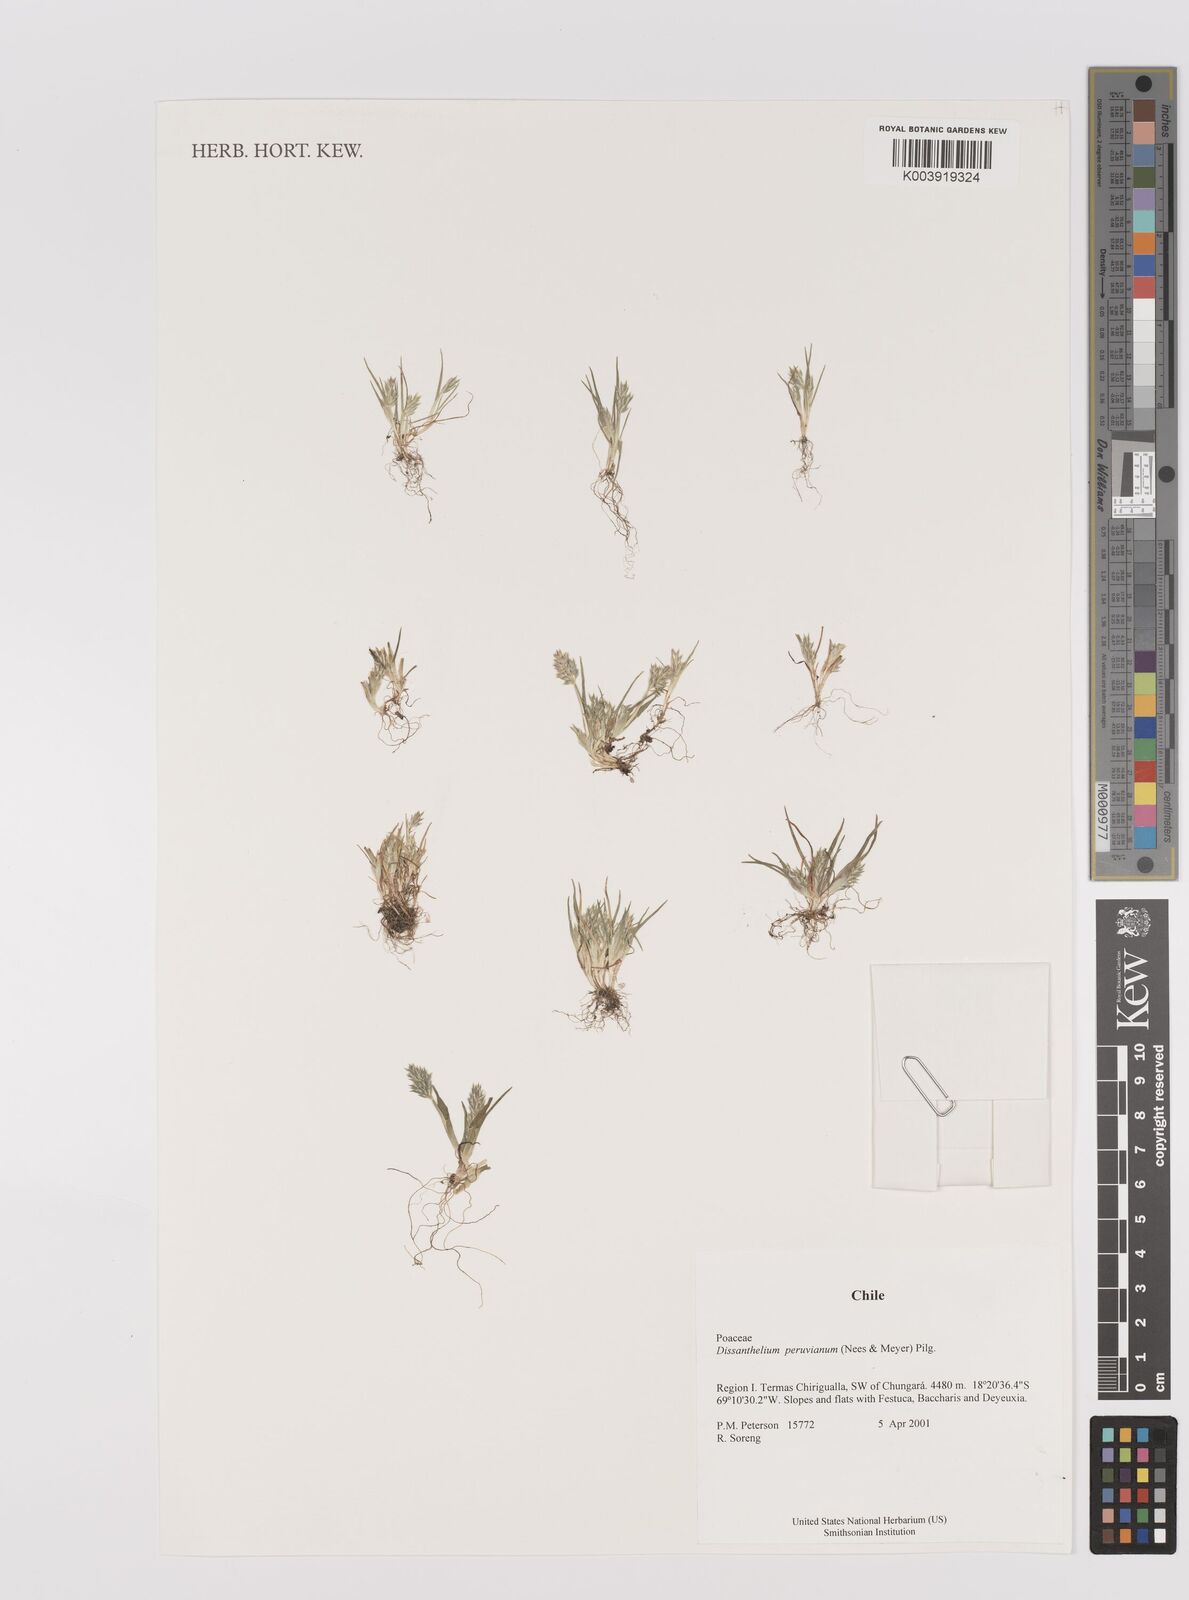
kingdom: Plantae
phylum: Tracheophyta
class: Liliopsida
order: Poales
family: Poaceae
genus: Poa
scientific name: Poa serpana
